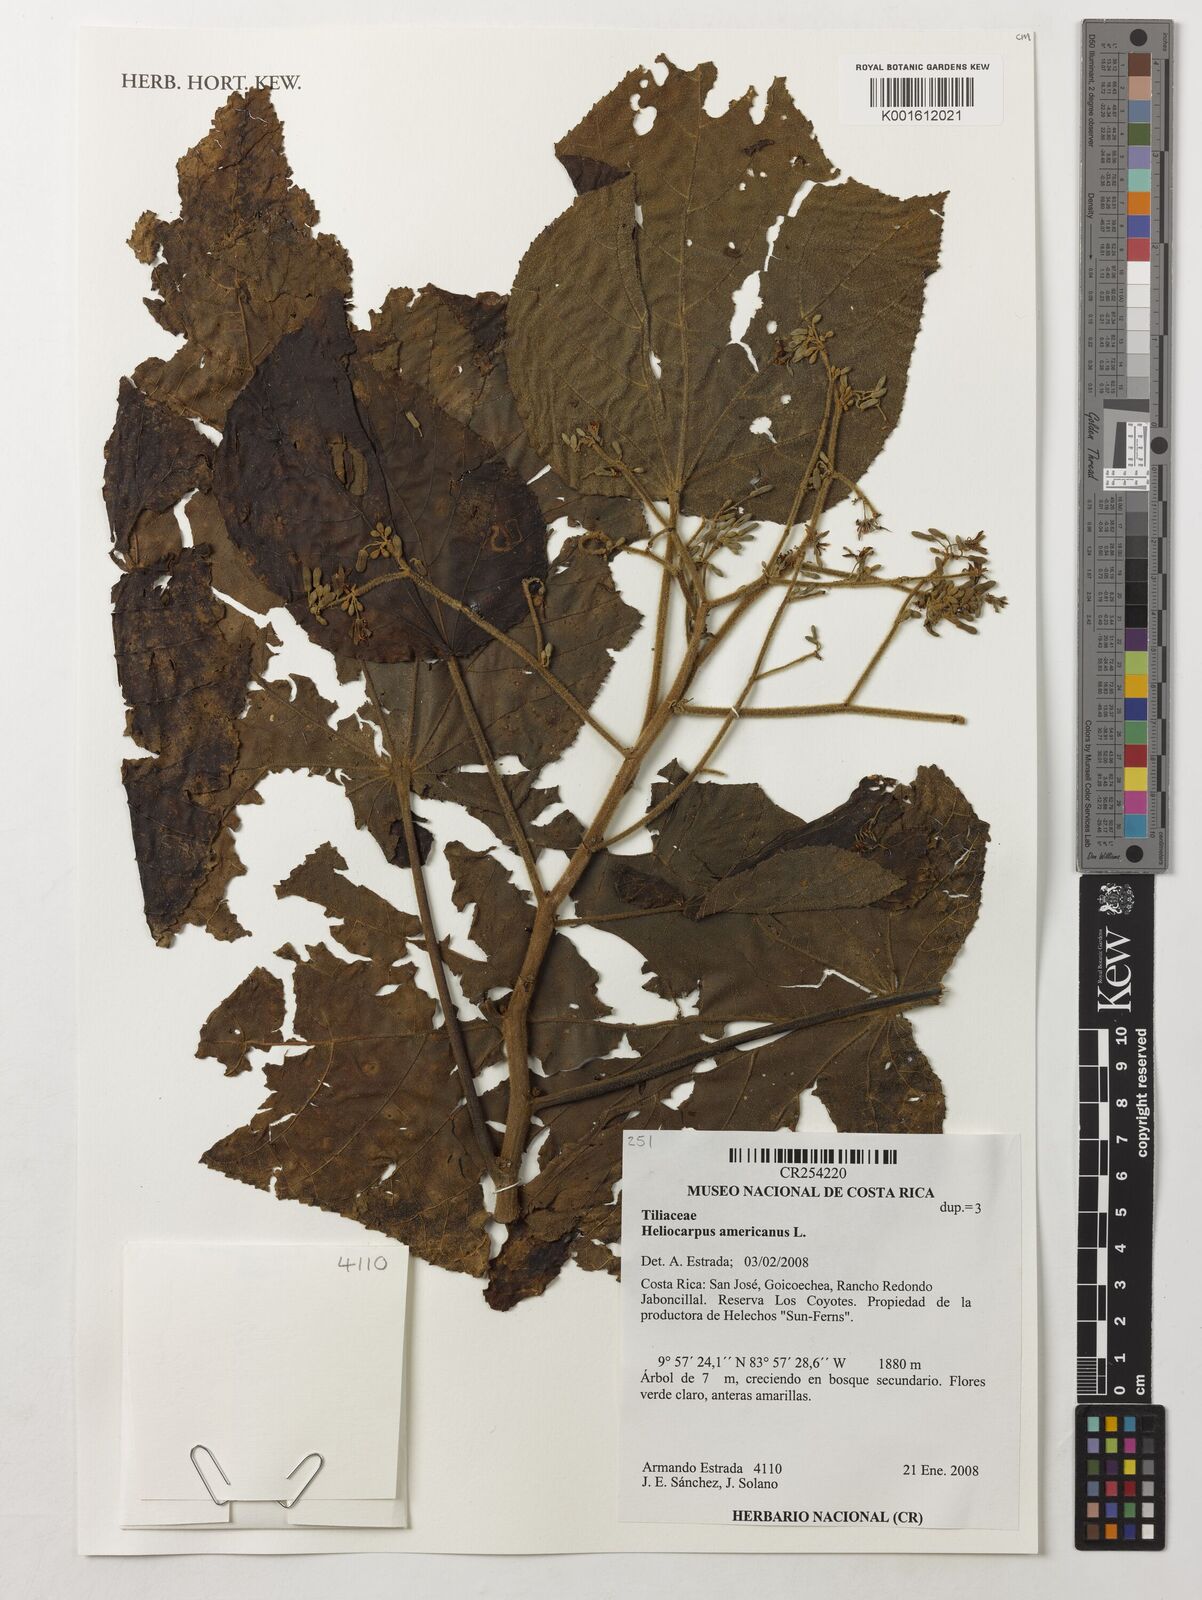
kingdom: Plantae
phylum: Tracheophyta
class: Magnoliopsida
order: Malvales
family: Malvaceae
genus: Heliocarpus
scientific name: Heliocarpus americanus
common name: White moho
